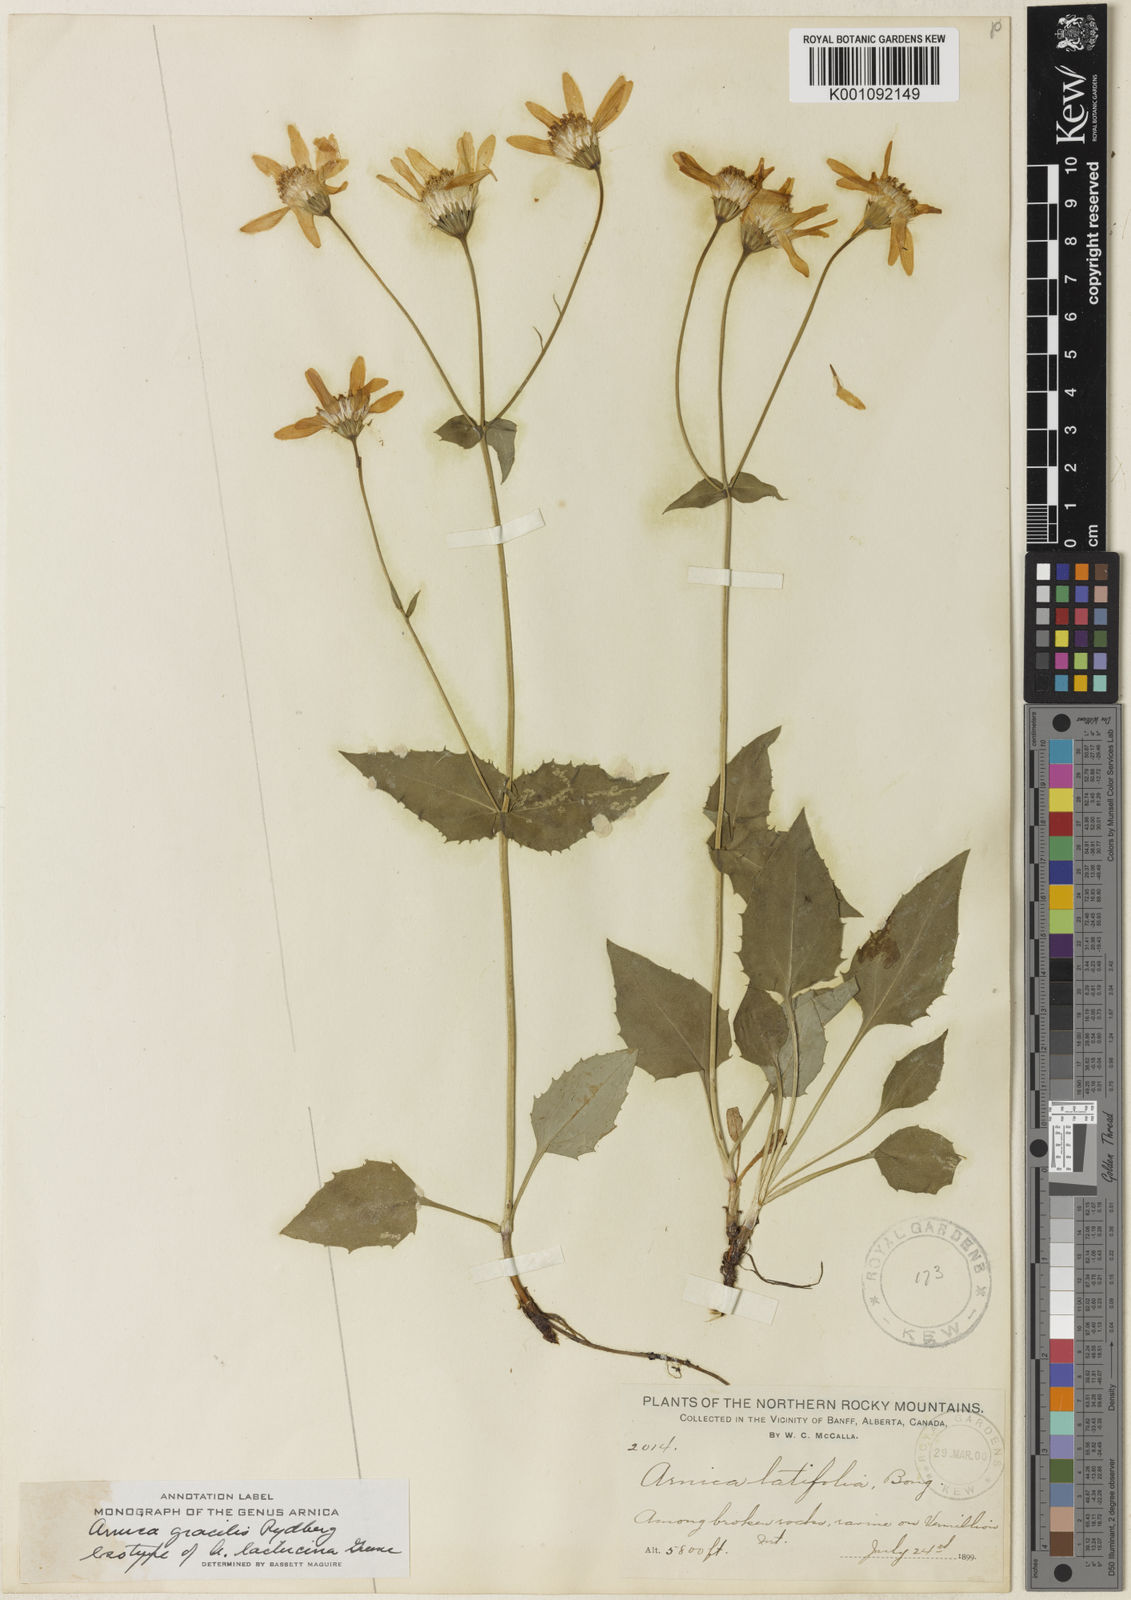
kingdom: Plantae
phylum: Tracheophyta
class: Magnoliopsida
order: Asterales
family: Asteraceae
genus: Arnica
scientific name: Arnica gracilis
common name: Slender arnica
